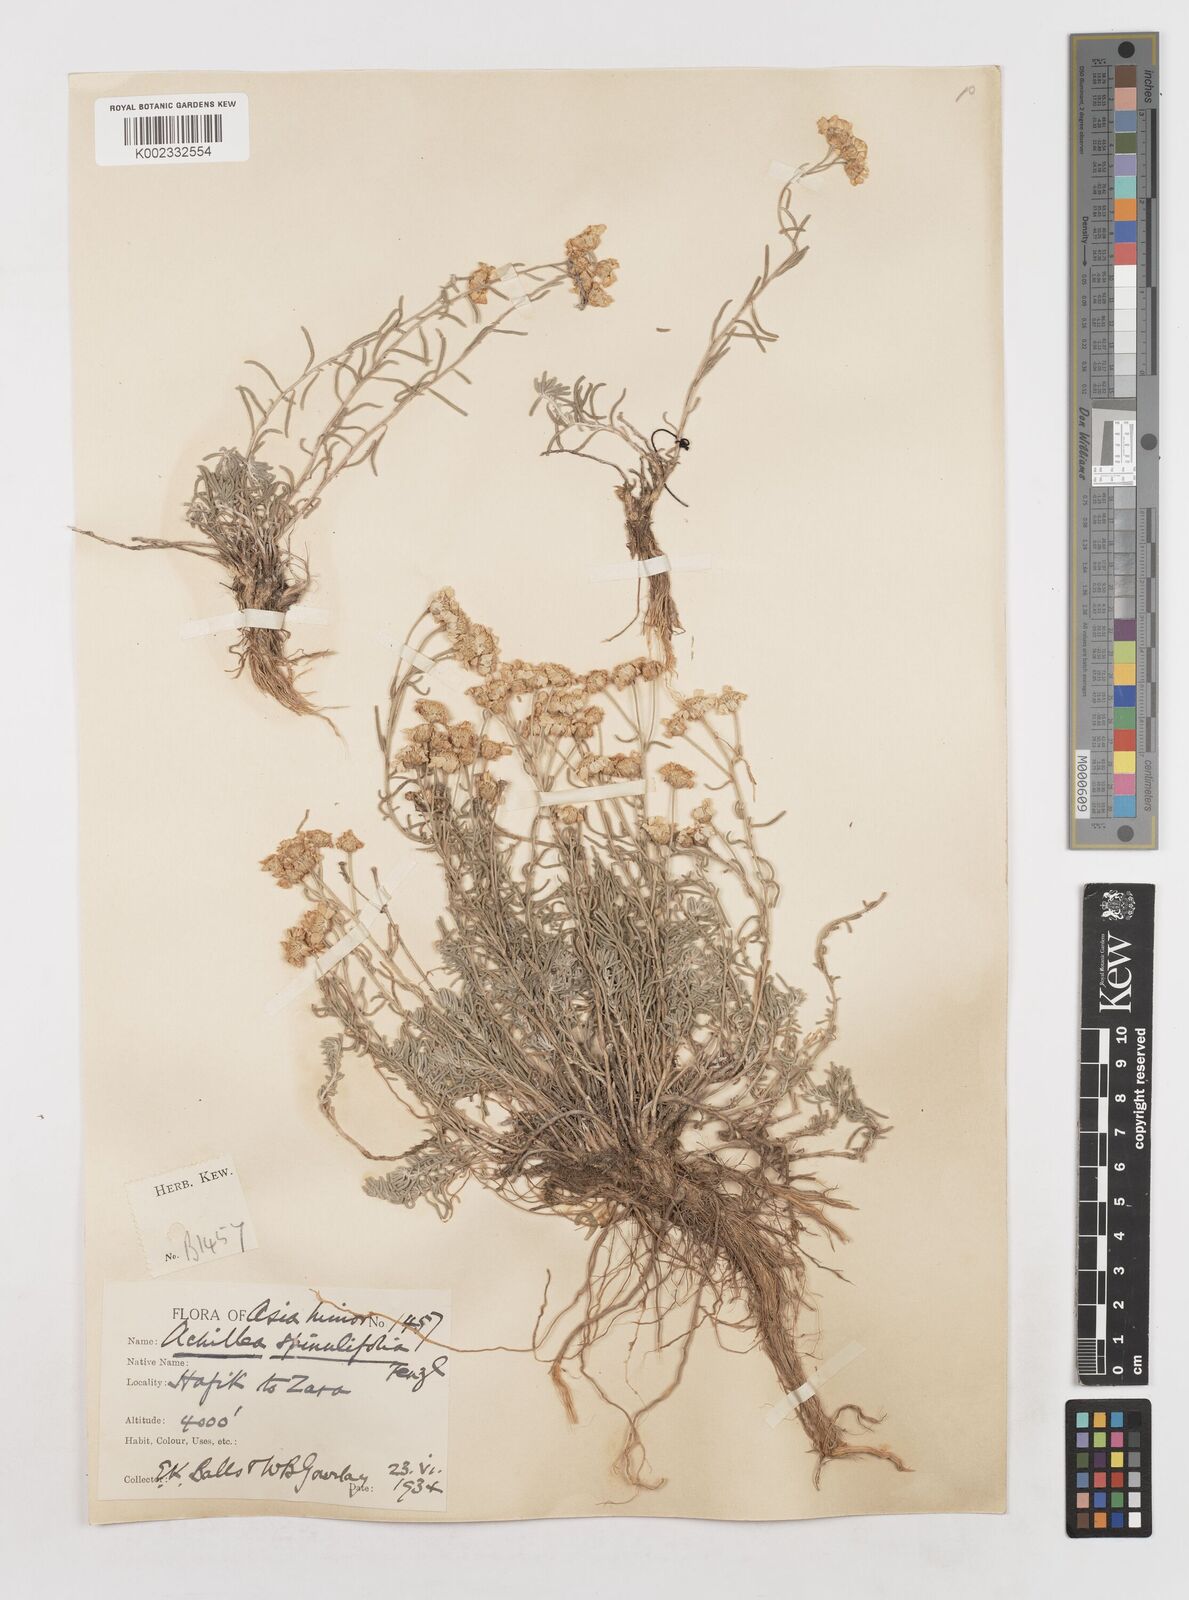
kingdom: Plantae
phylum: Tracheophyta
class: Magnoliopsida
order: Asterales
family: Asteraceae
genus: Achillea
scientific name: Achillea spinulifolia
